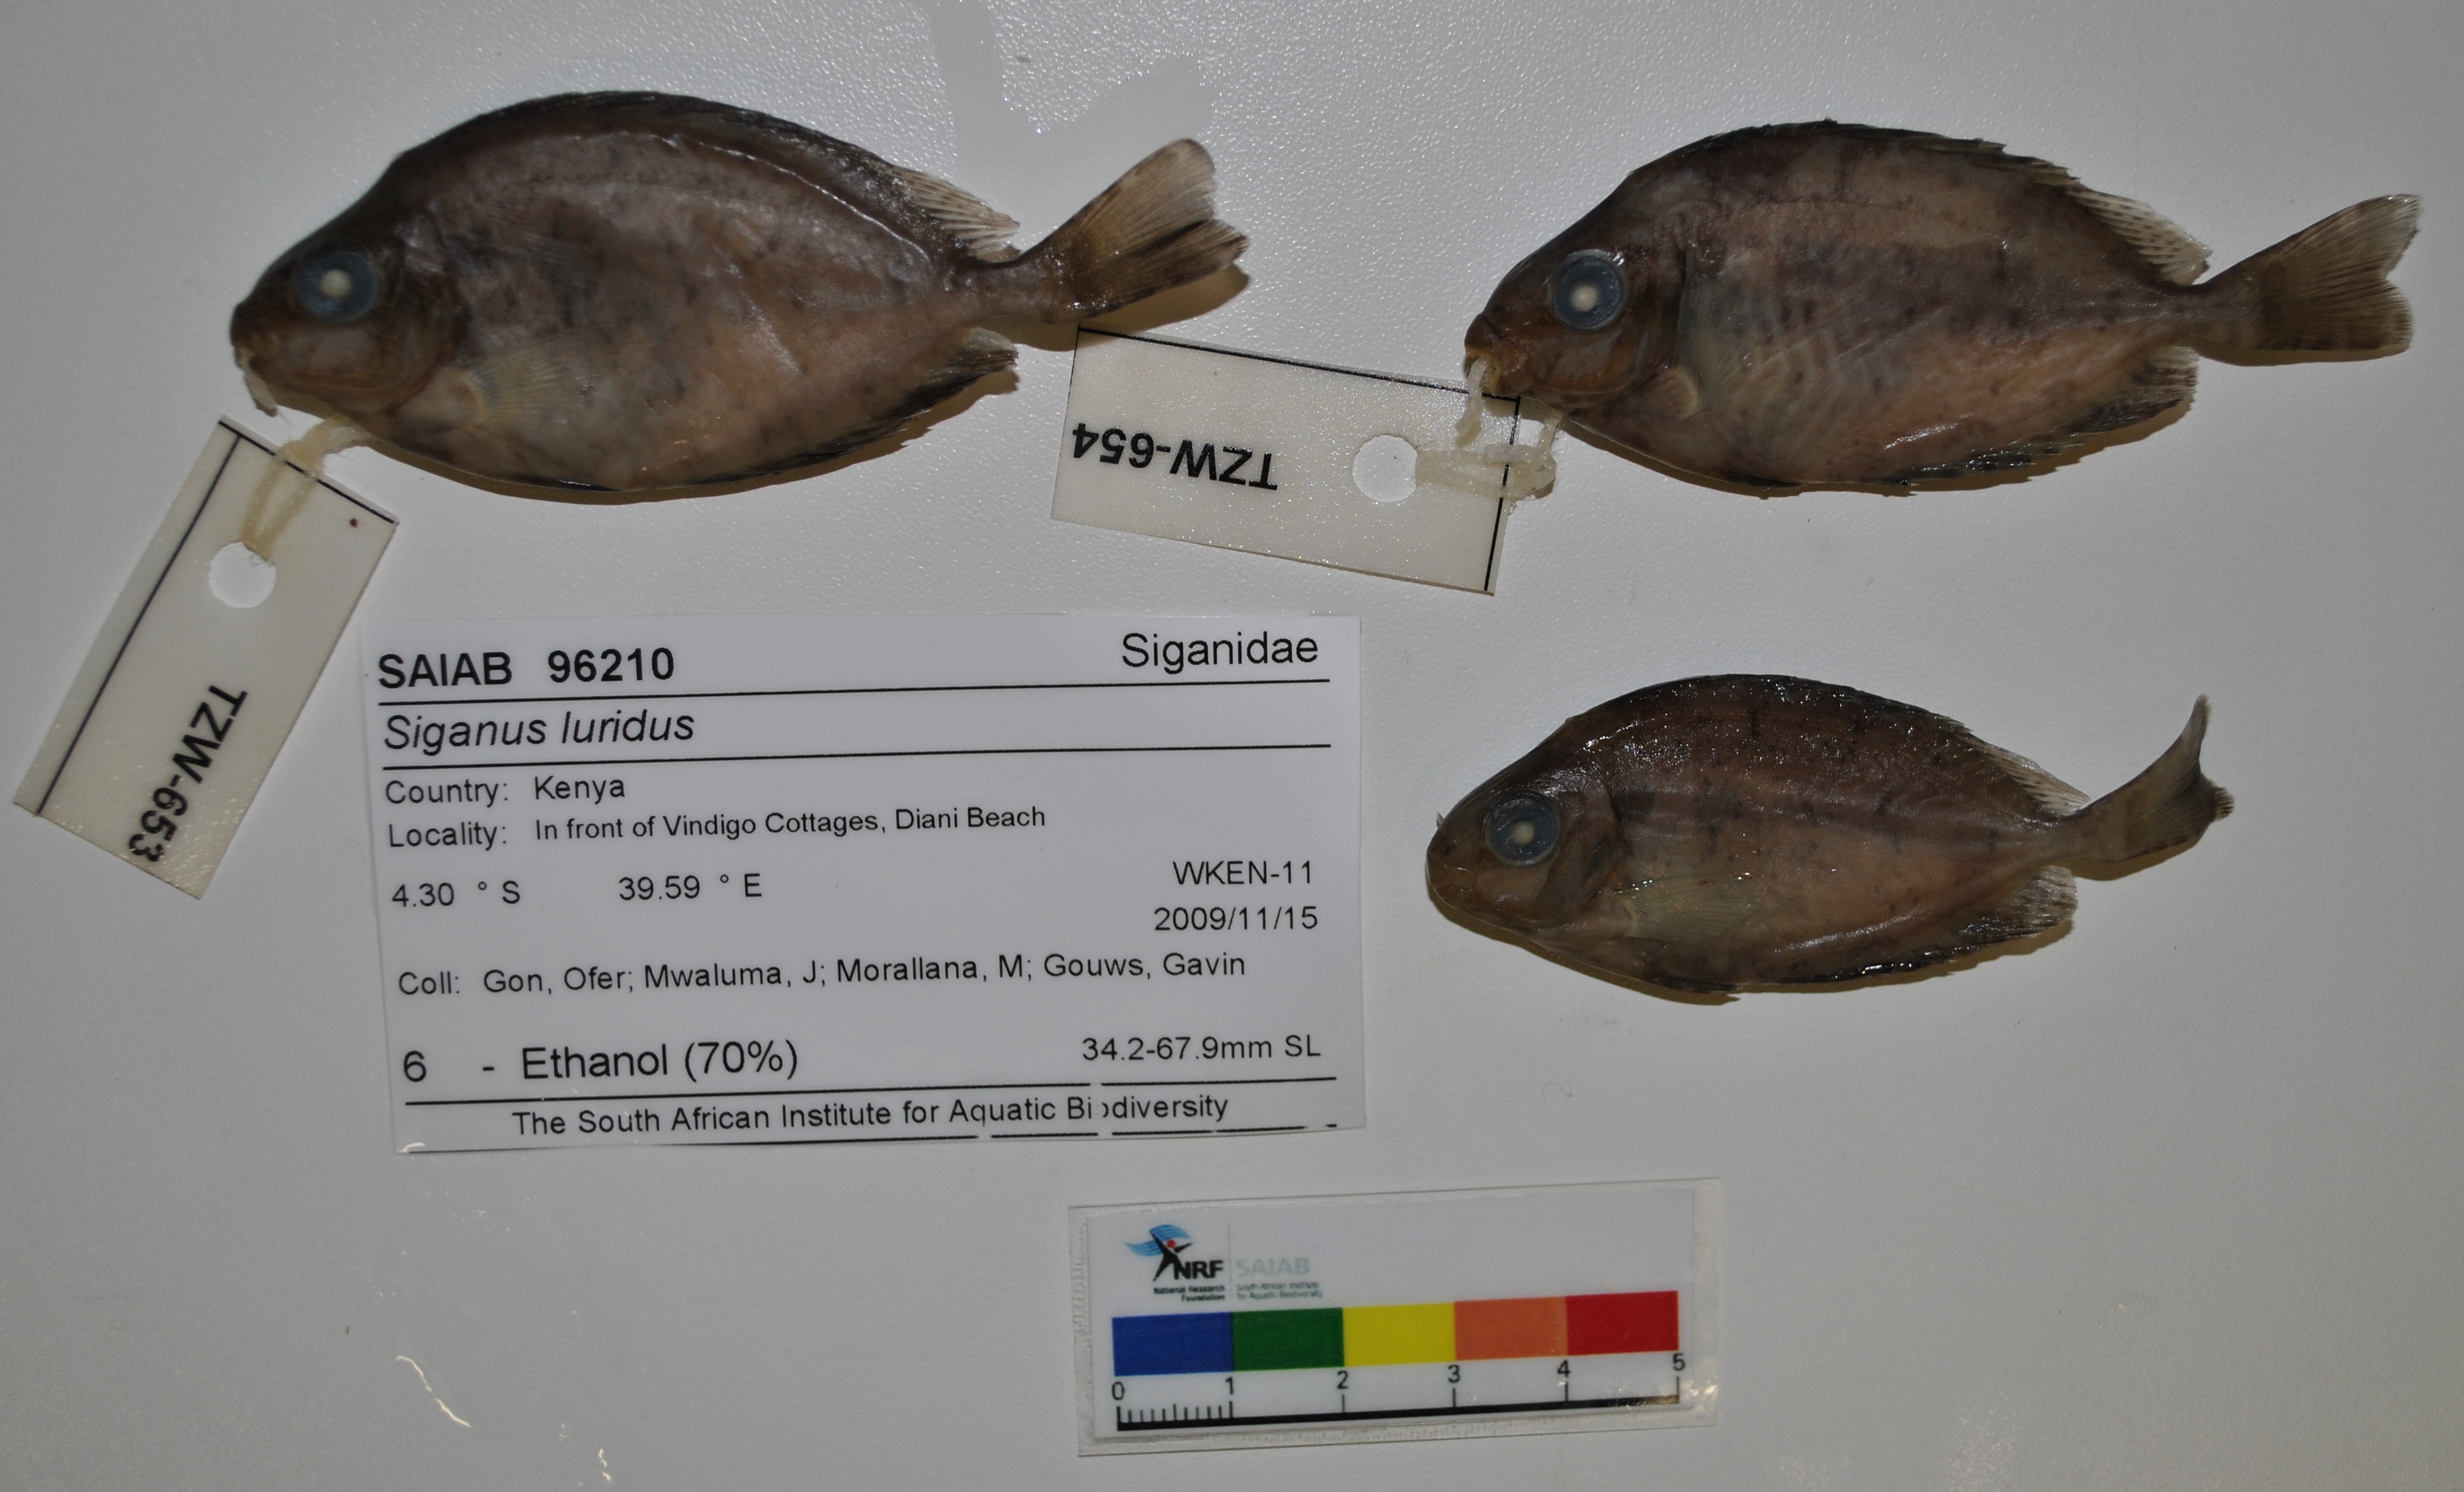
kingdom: Animalia
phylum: Chordata
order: Perciformes
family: Siganidae
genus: Siganus
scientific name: Siganus luridus
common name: Dusky spinefoot
